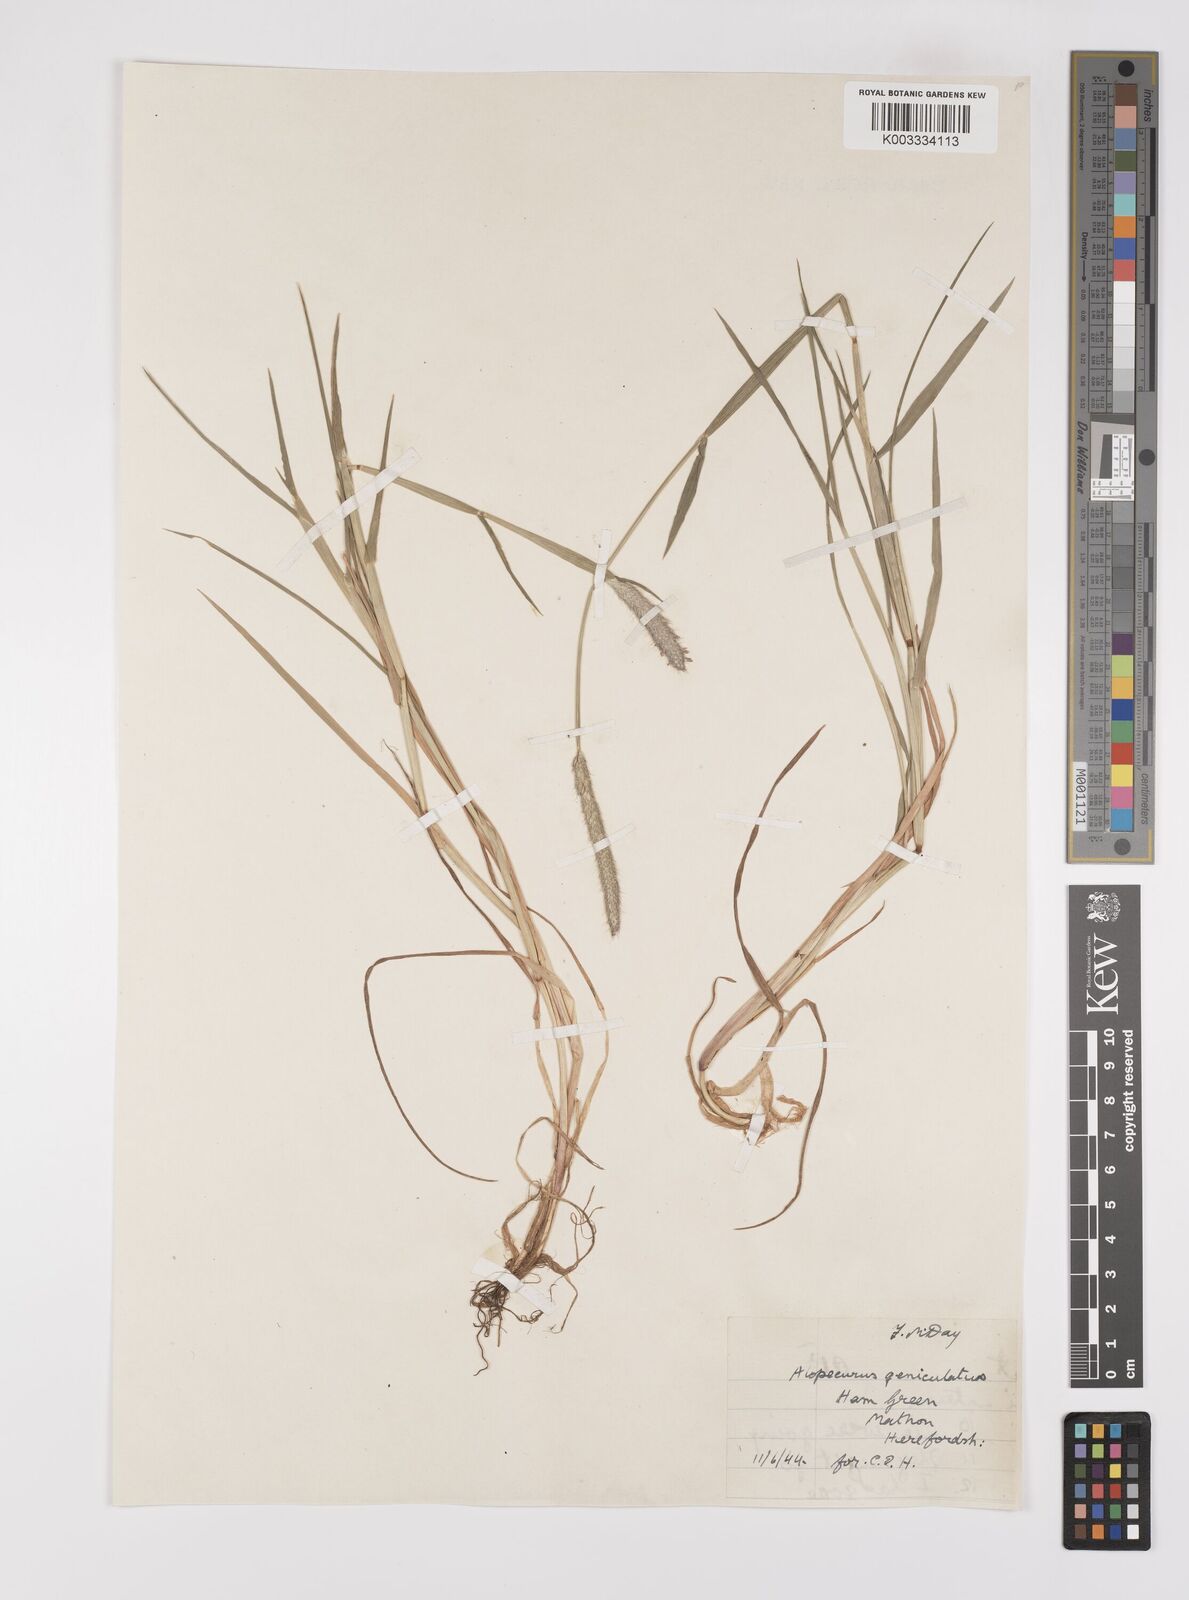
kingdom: Plantae
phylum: Tracheophyta
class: Liliopsida
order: Poales
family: Poaceae
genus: Alopecurus
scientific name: Alopecurus geniculatus
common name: Water foxtail
